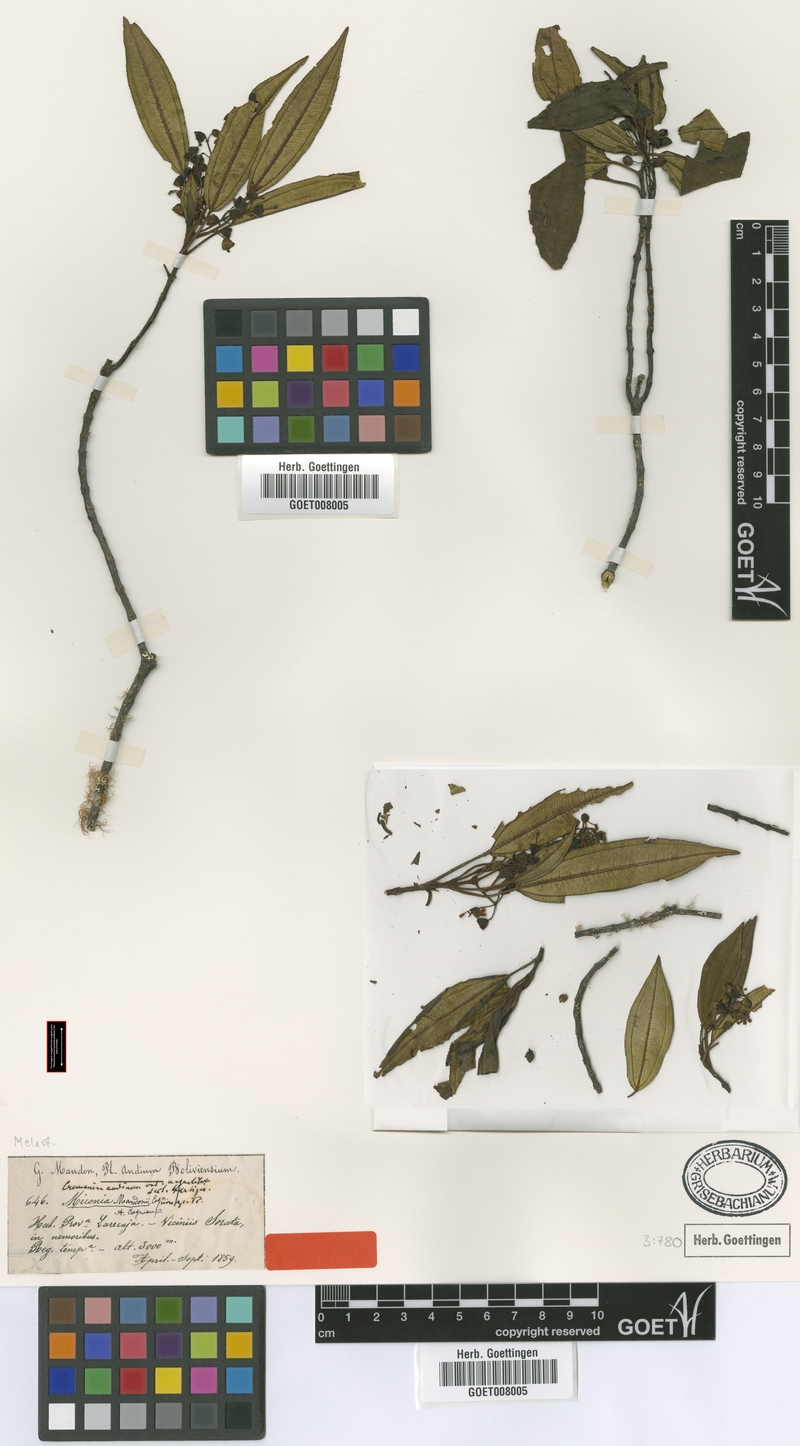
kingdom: Plantae
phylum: Tracheophyta
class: Magnoliopsida
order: Myrtales
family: Melastomataceae
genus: Miconia
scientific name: Miconia mandonii
